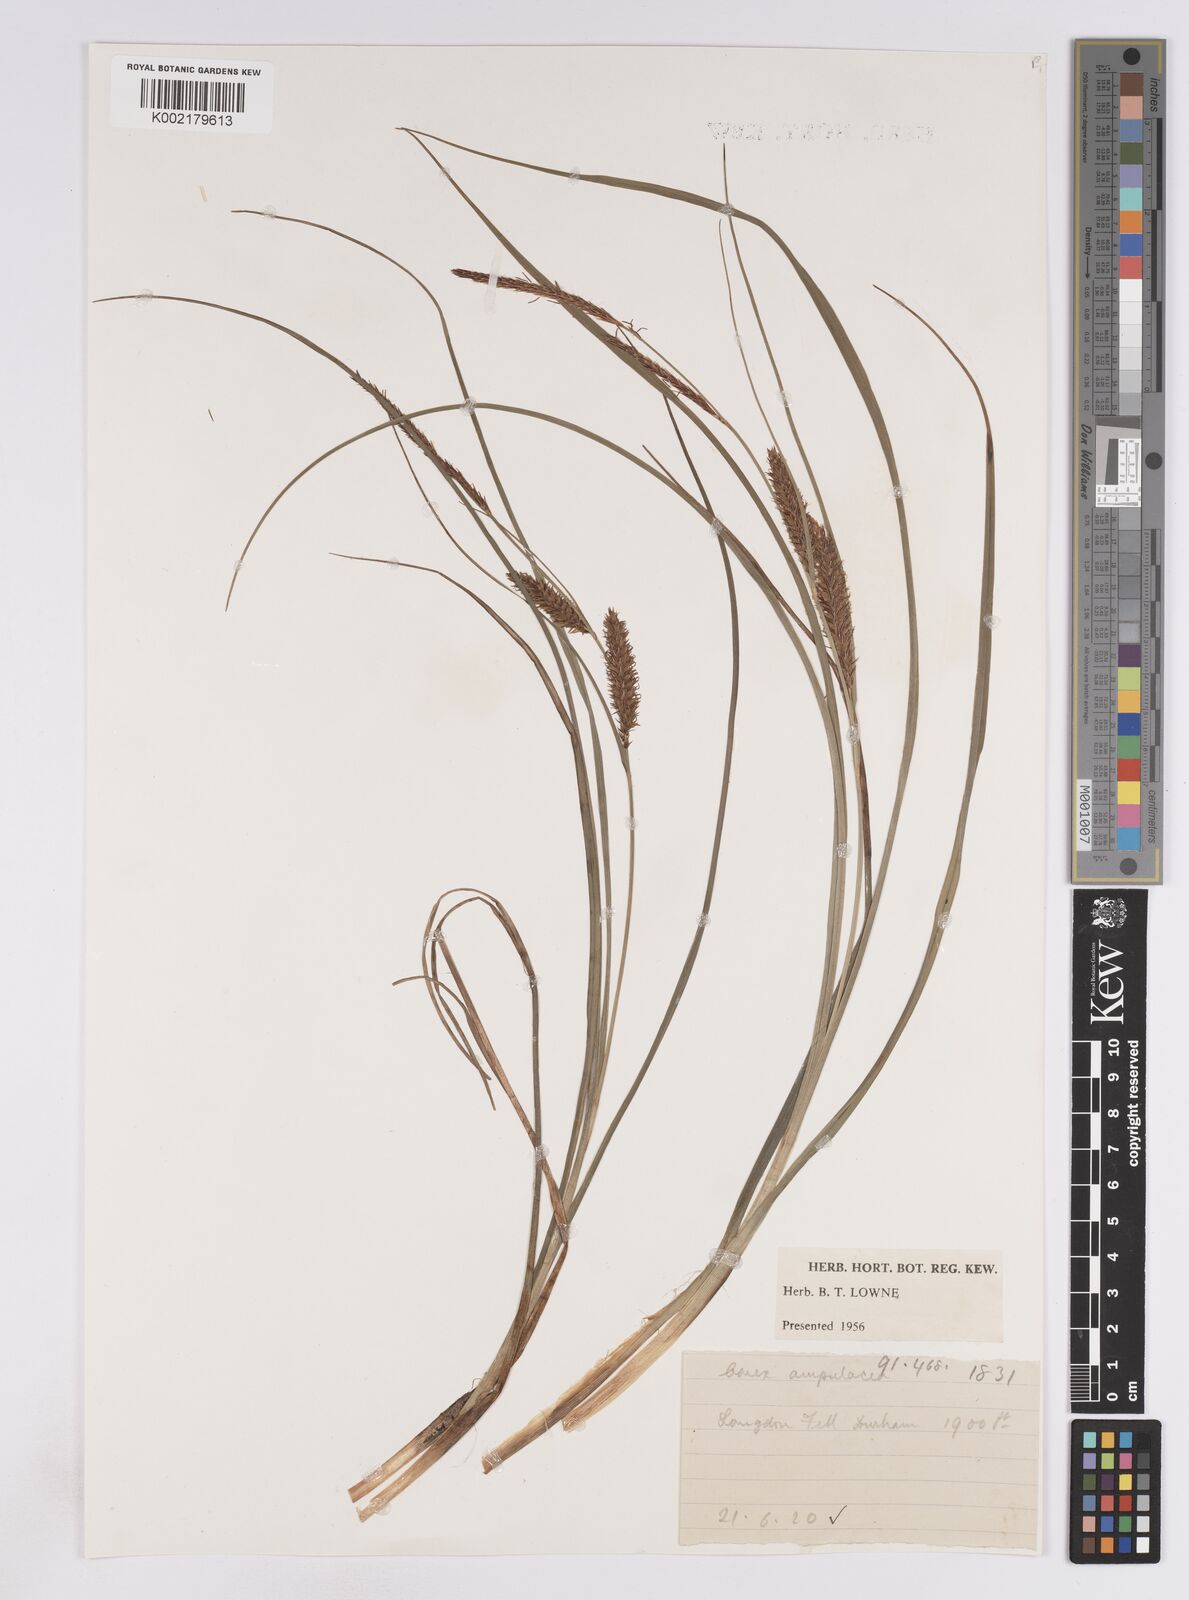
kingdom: Plantae
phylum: Tracheophyta
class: Liliopsida
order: Poales
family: Cyperaceae
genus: Carex
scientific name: Carex rostrata
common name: Bottle sedge
